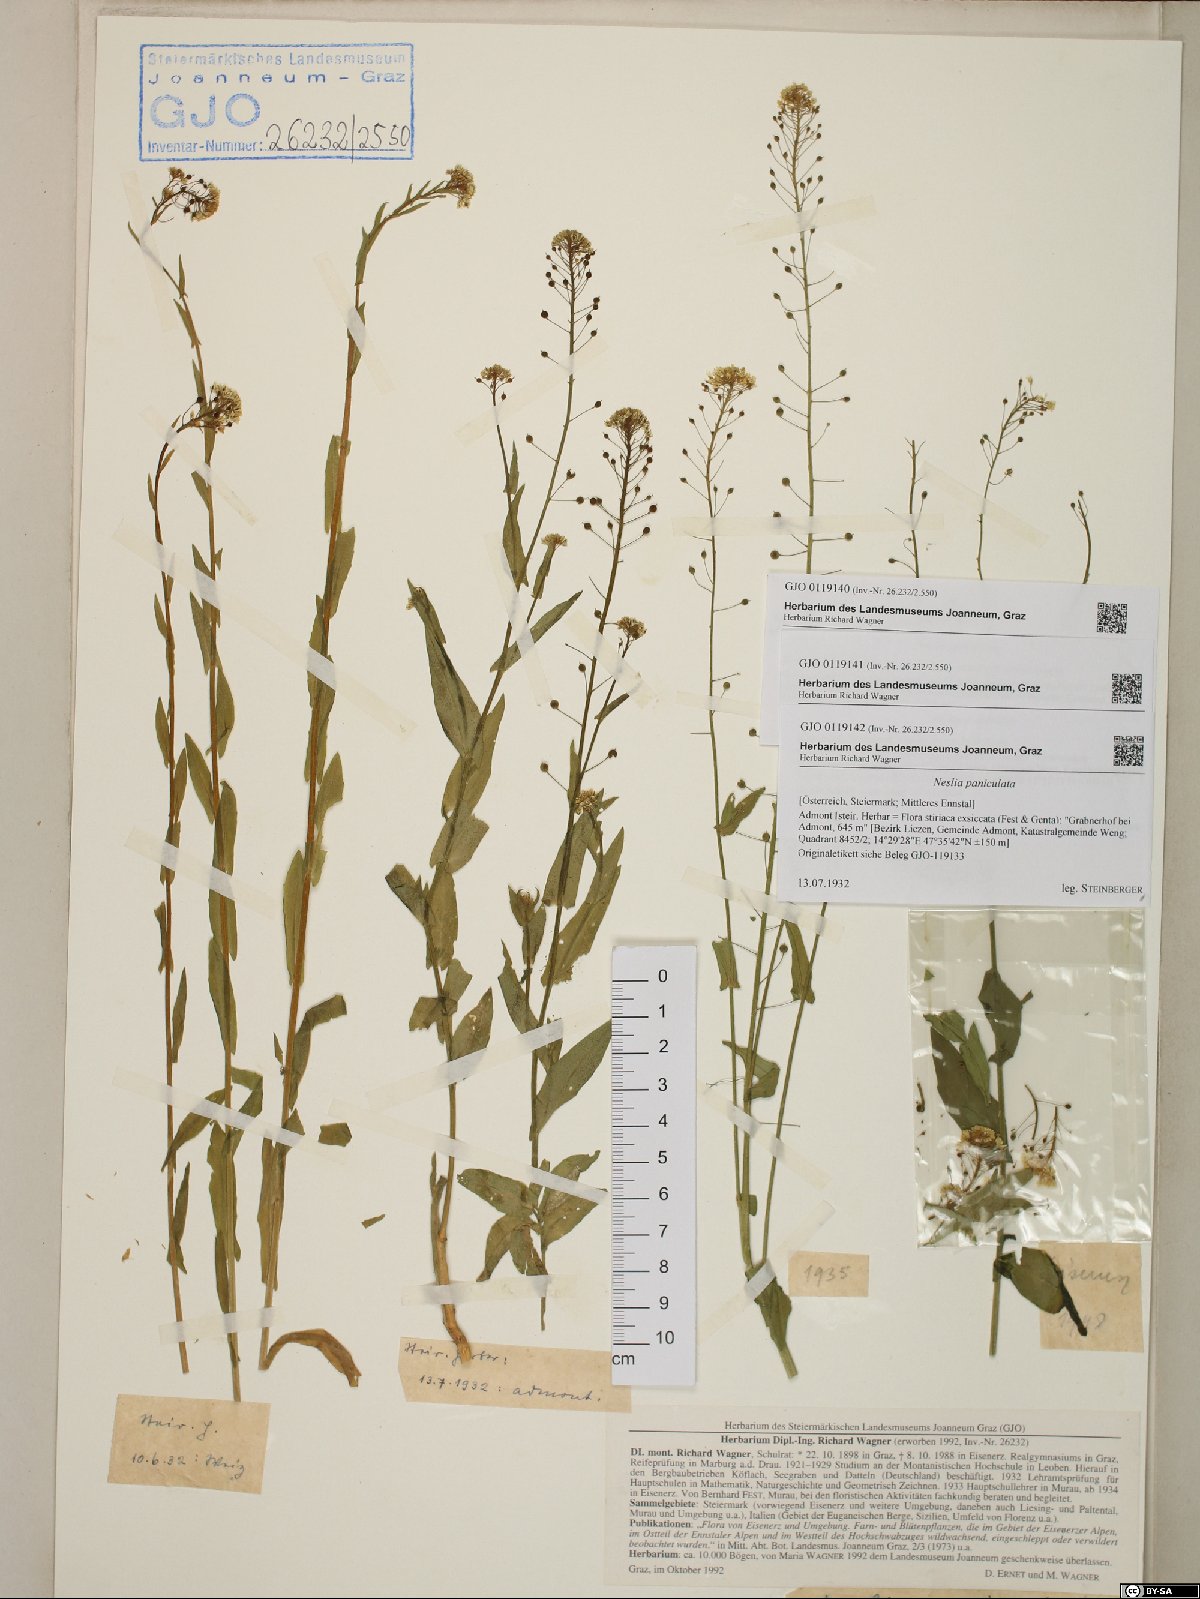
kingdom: Plantae
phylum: Tracheophyta
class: Magnoliopsida
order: Brassicales
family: Brassicaceae
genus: Neslia
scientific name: Neslia paniculata
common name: Ball mustard
